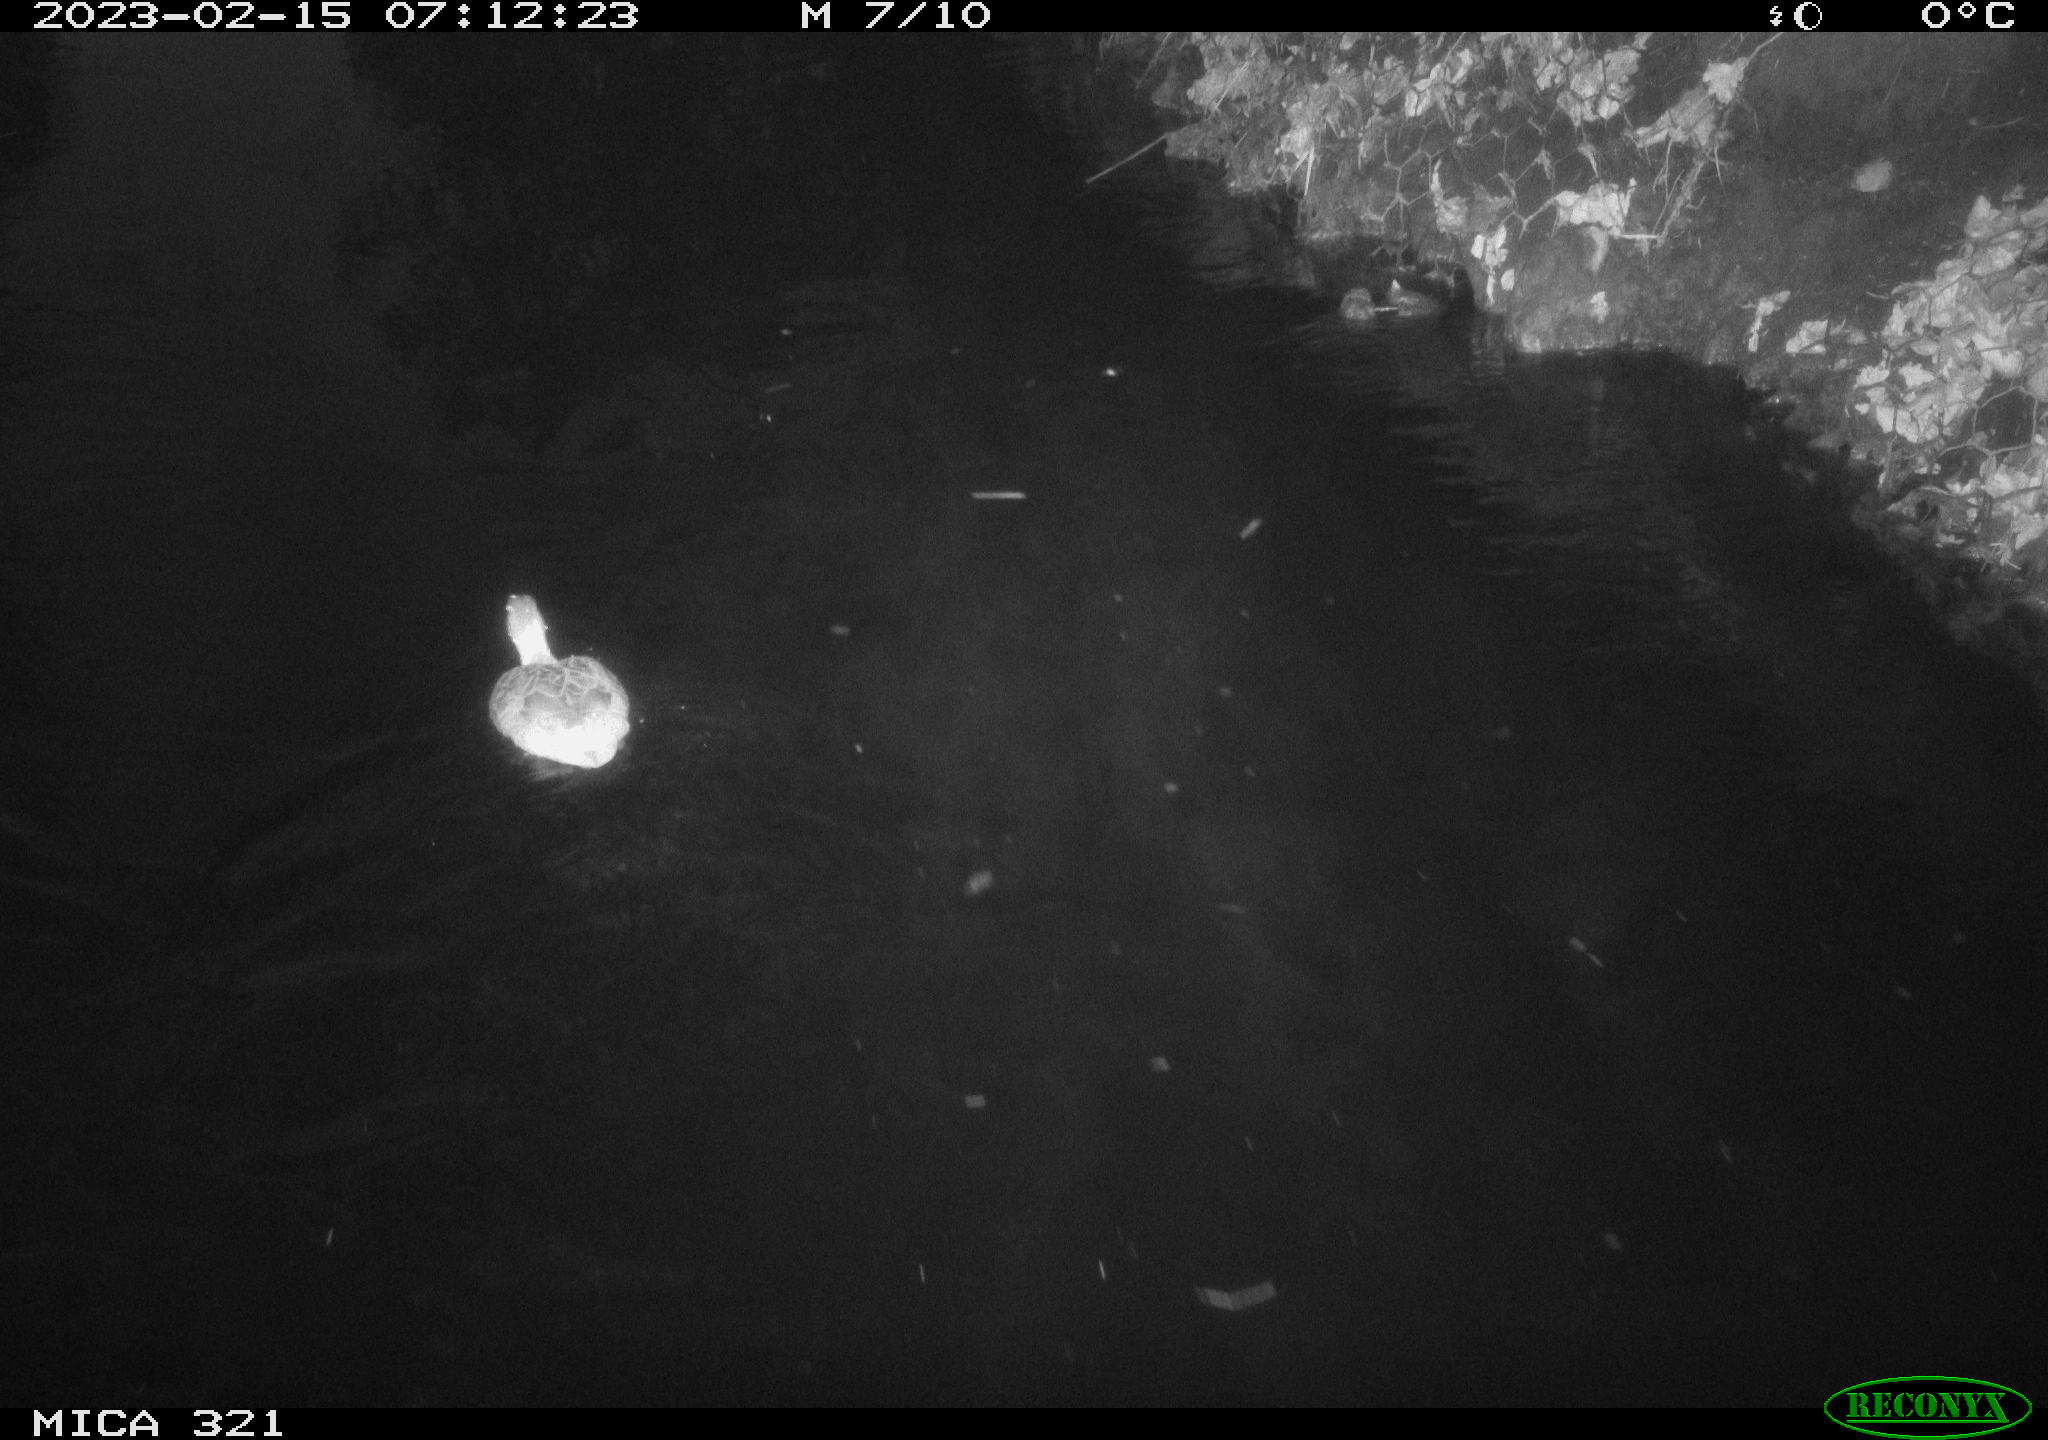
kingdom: Animalia
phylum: Chordata
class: Aves
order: Anseriformes
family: Anatidae
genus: Anas
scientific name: Anas
